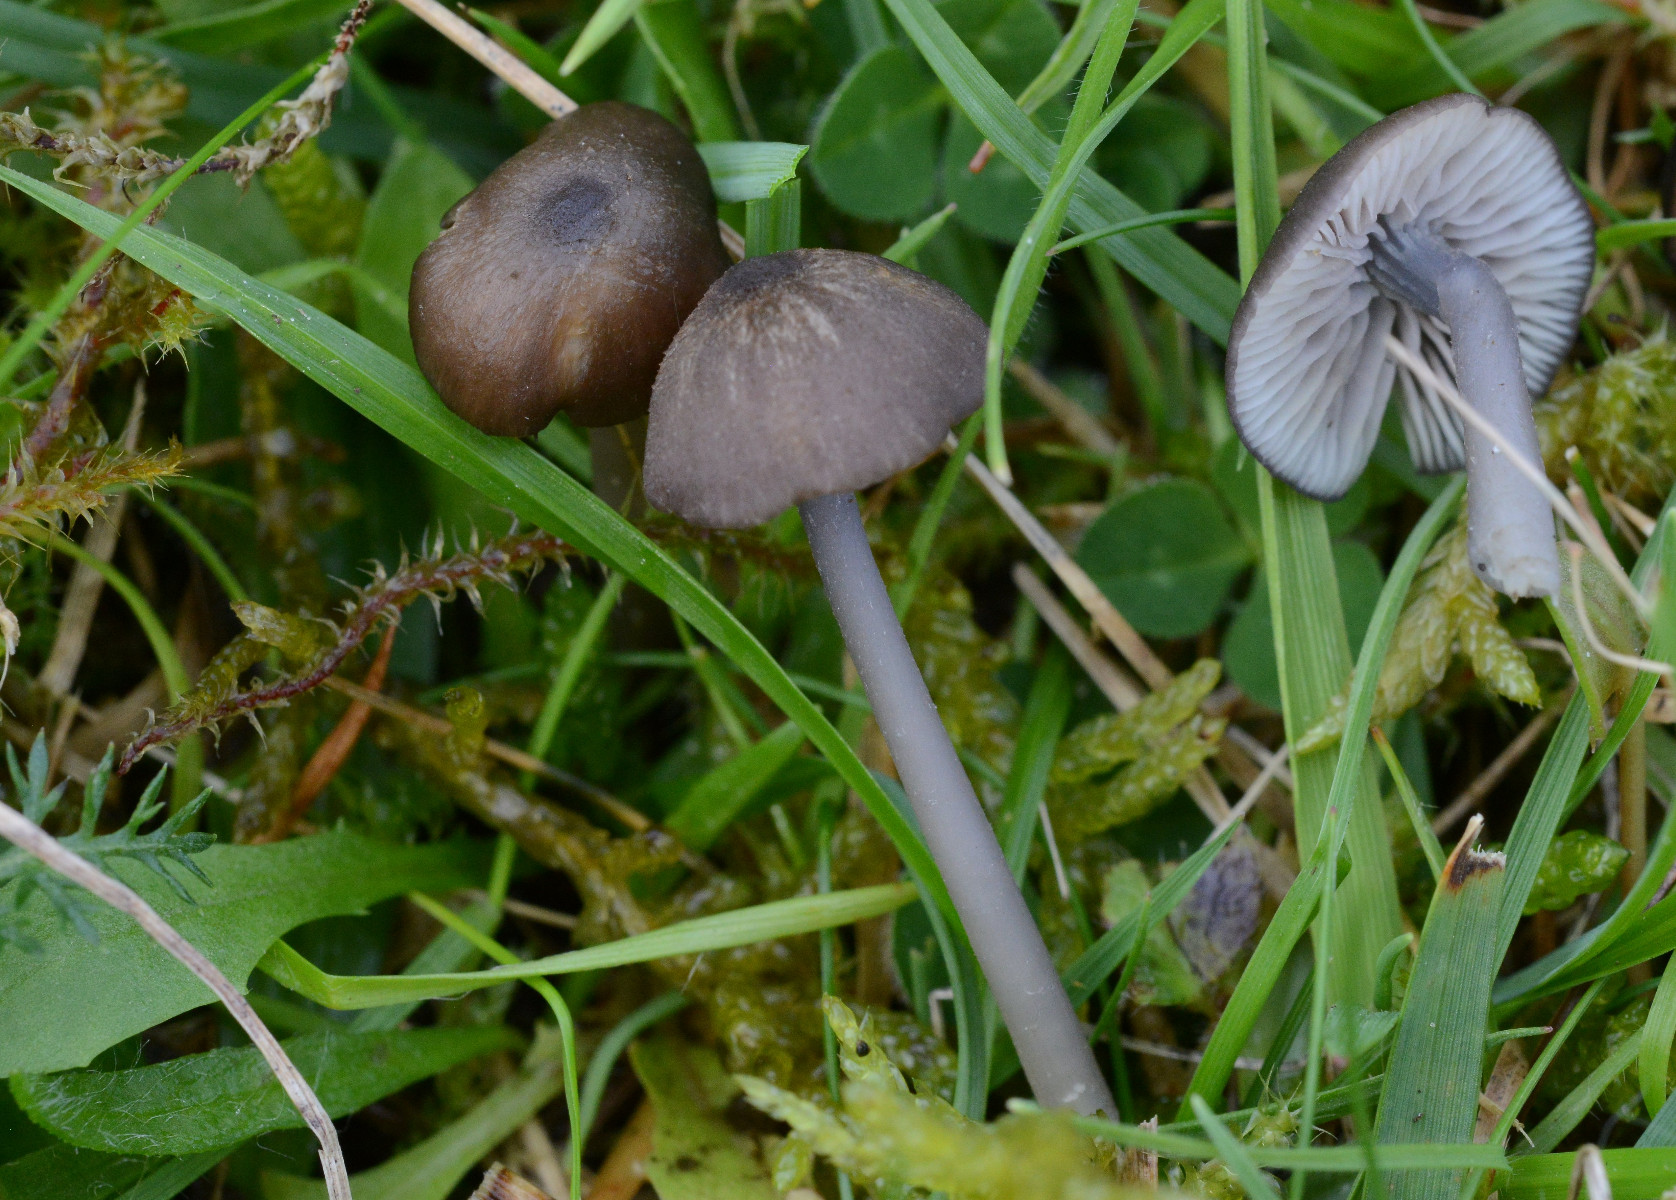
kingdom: Fungi
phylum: Basidiomycota
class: Agaricomycetes
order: Agaricales
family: Entolomataceae
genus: Entoloma
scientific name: Entoloma
